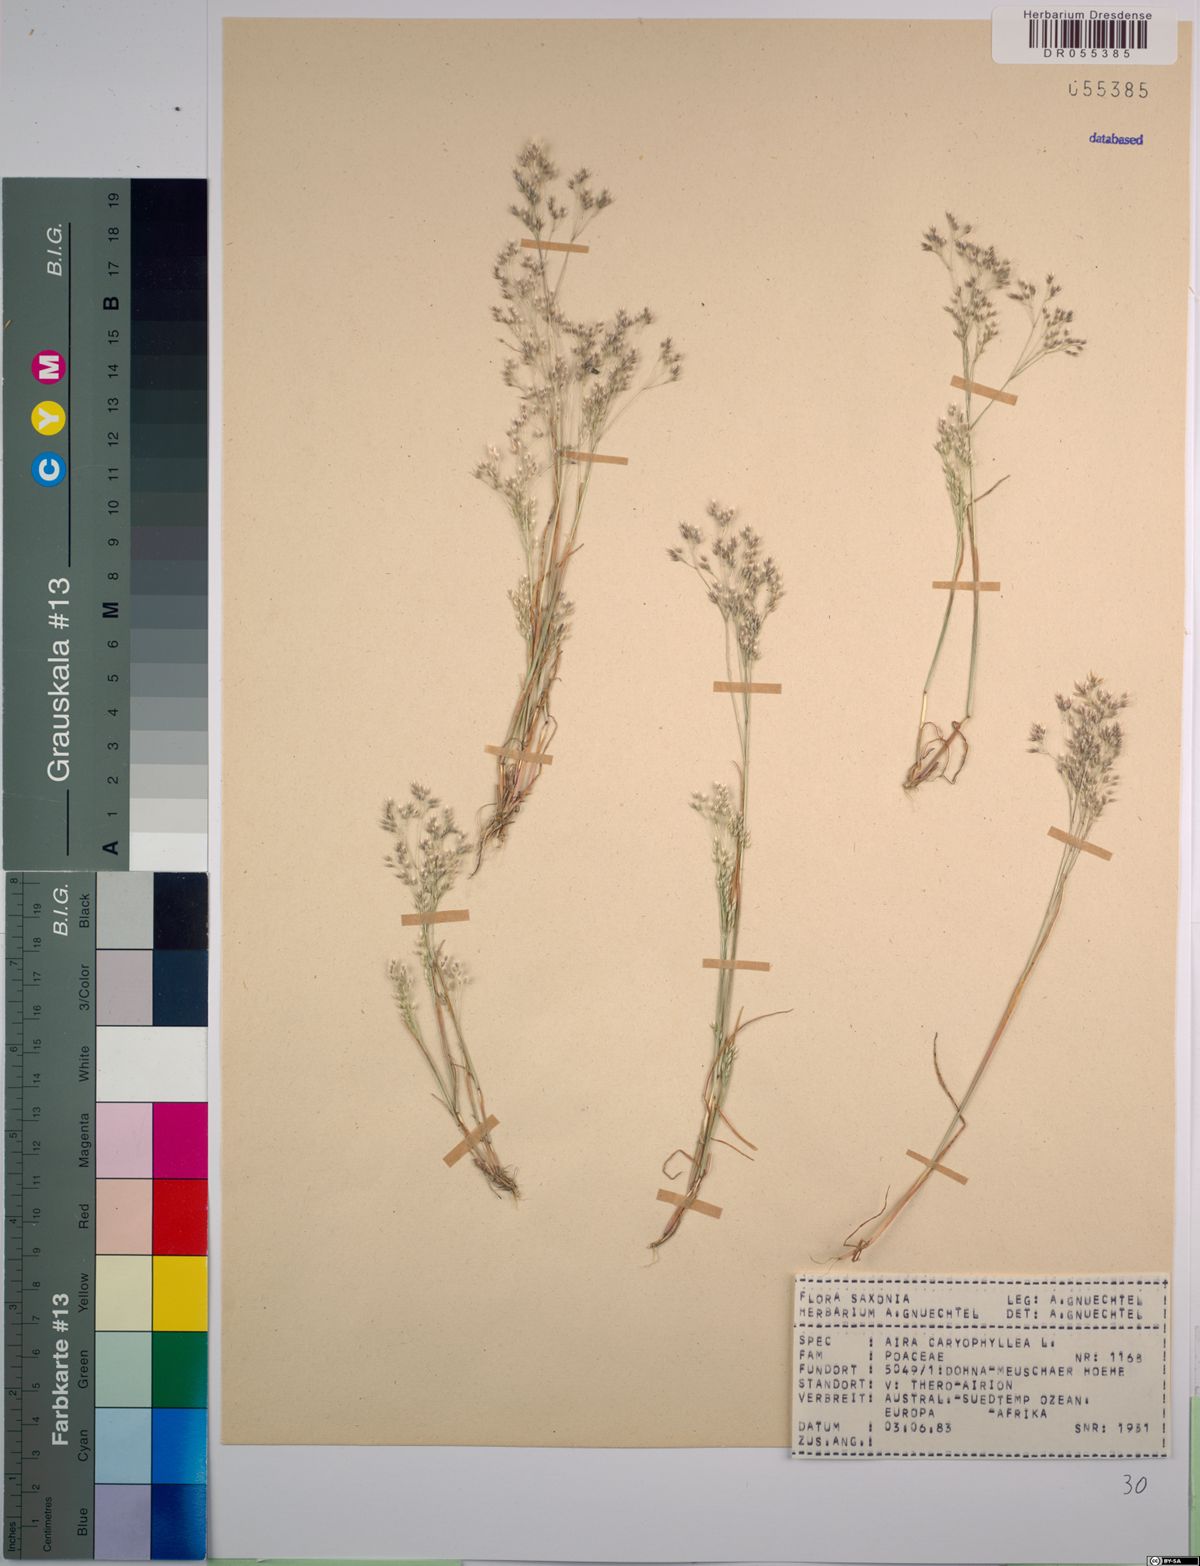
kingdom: Plantae
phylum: Tracheophyta
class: Liliopsida
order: Poales
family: Poaceae
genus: Aira
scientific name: Aira caryophyllea
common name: Silver hairgrass
